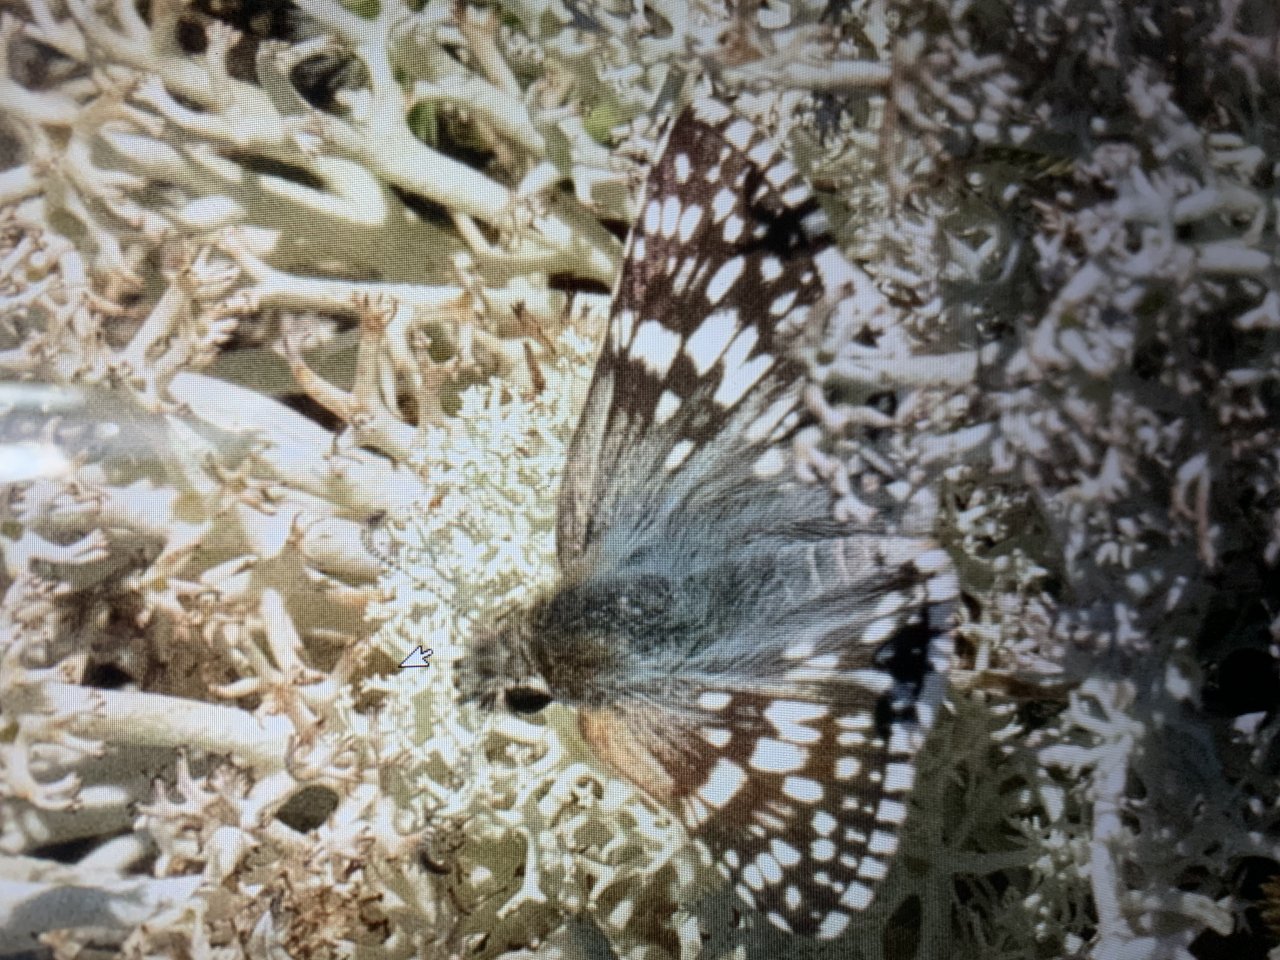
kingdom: Animalia
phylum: Arthropoda
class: Insecta
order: Lepidoptera
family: Hesperiidae
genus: Pyrgus
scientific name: Pyrgus communis
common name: Common Checkered-Skipper
